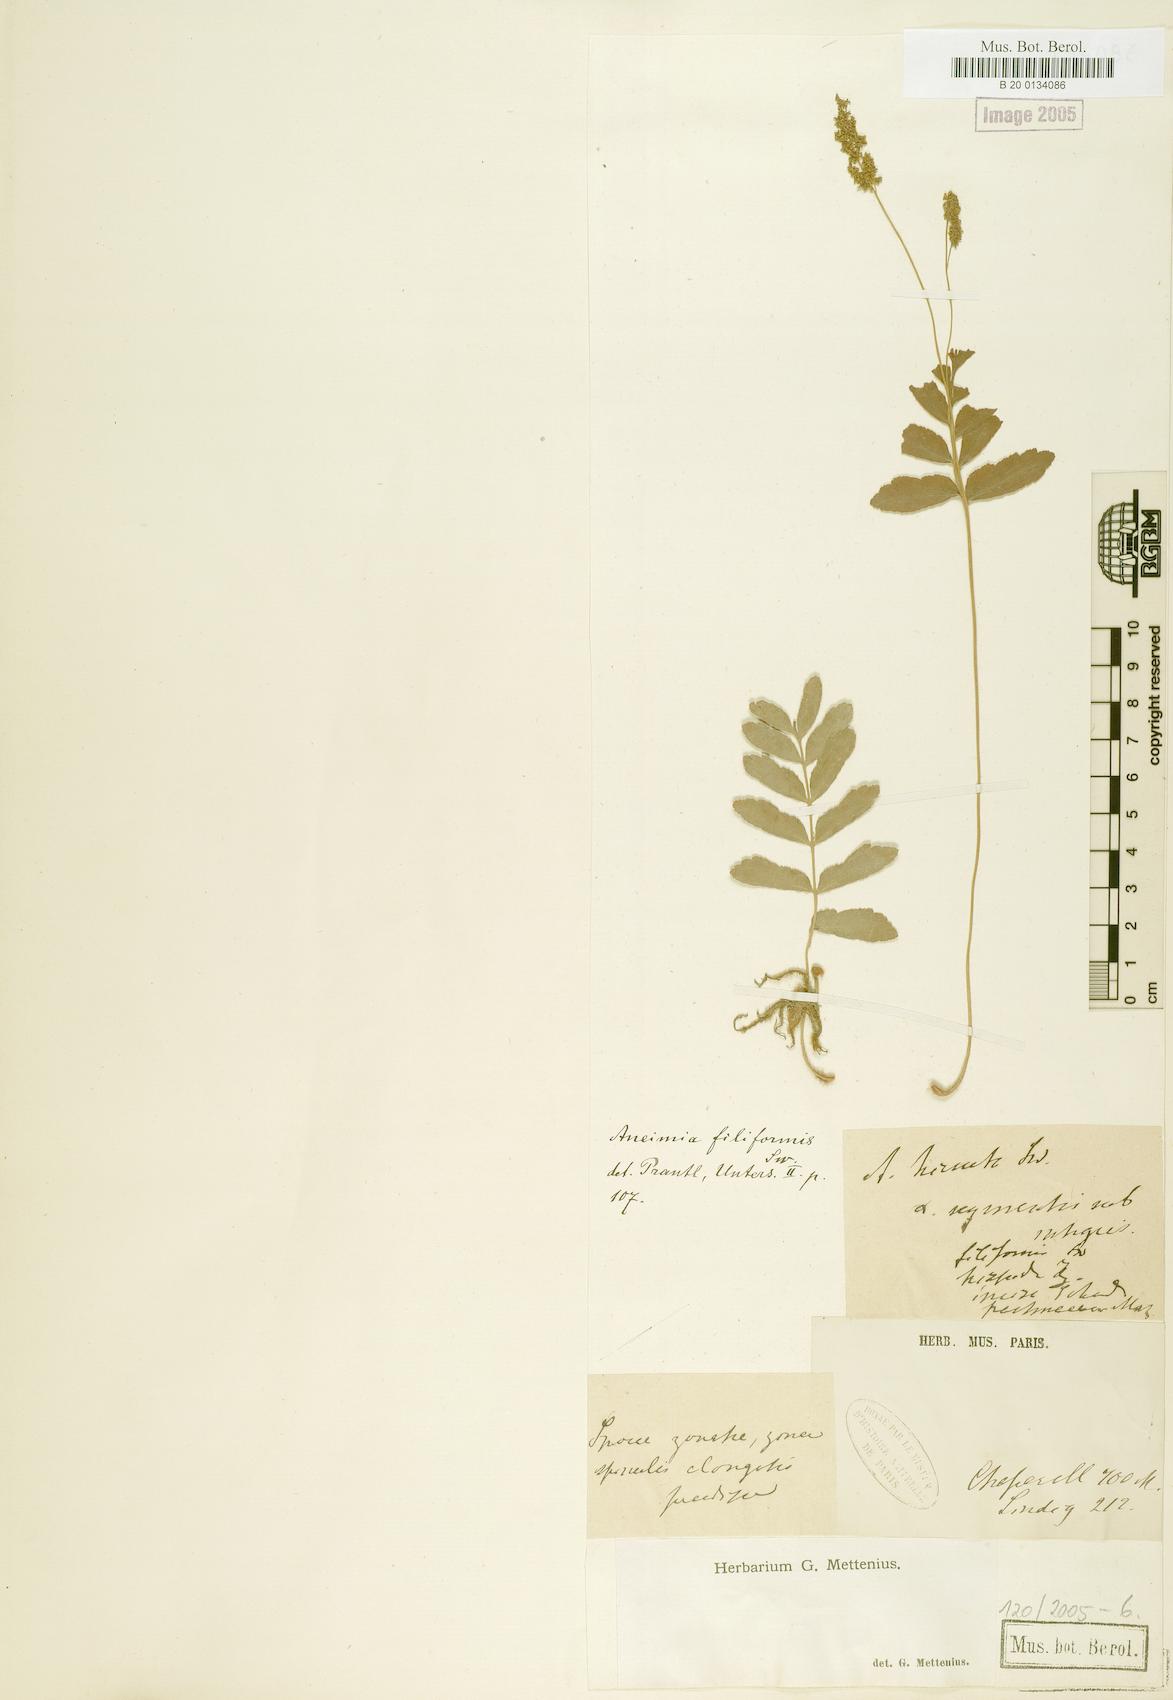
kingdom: Plantae
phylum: Tracheophyta
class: Polypodiopsida
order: Schizaeales
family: Anemiaceae
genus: Anemia
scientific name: Anemia hispida
